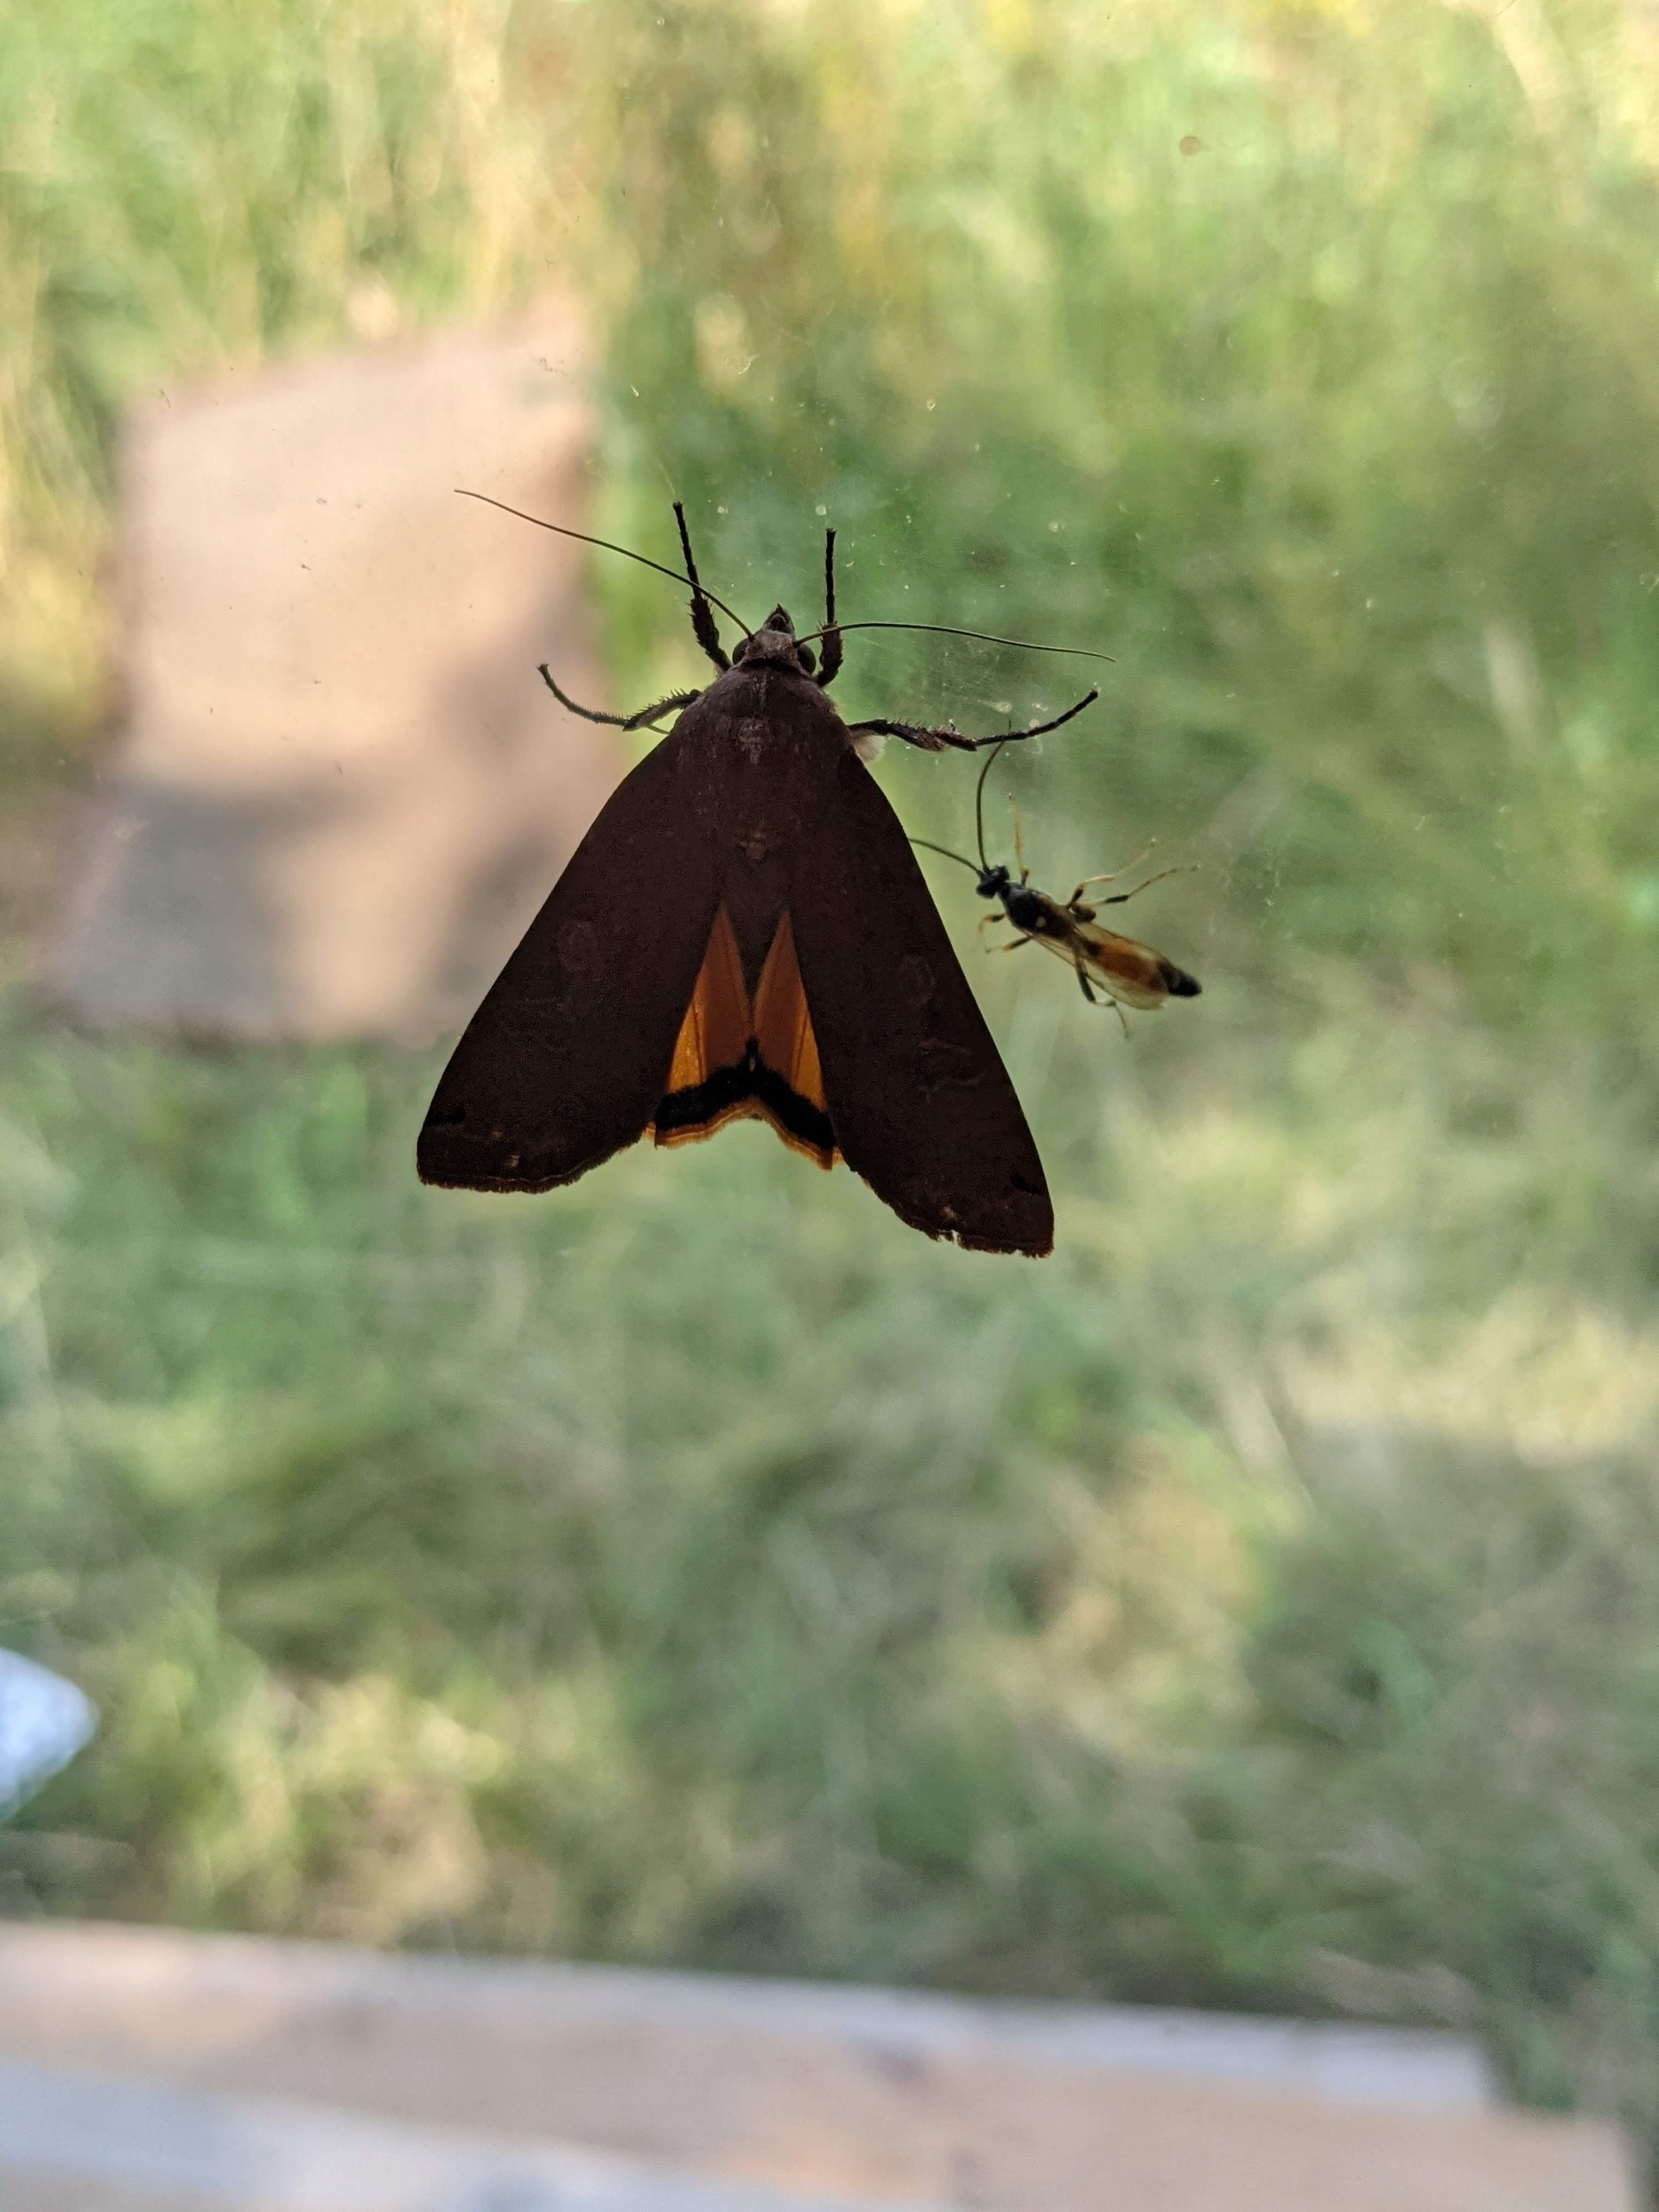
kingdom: Animalia
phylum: Arthropoda
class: Insecta
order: Lepidoptera
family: Noctuidae
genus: Noctua
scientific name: Noctua pronuba
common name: Stor smutugle
